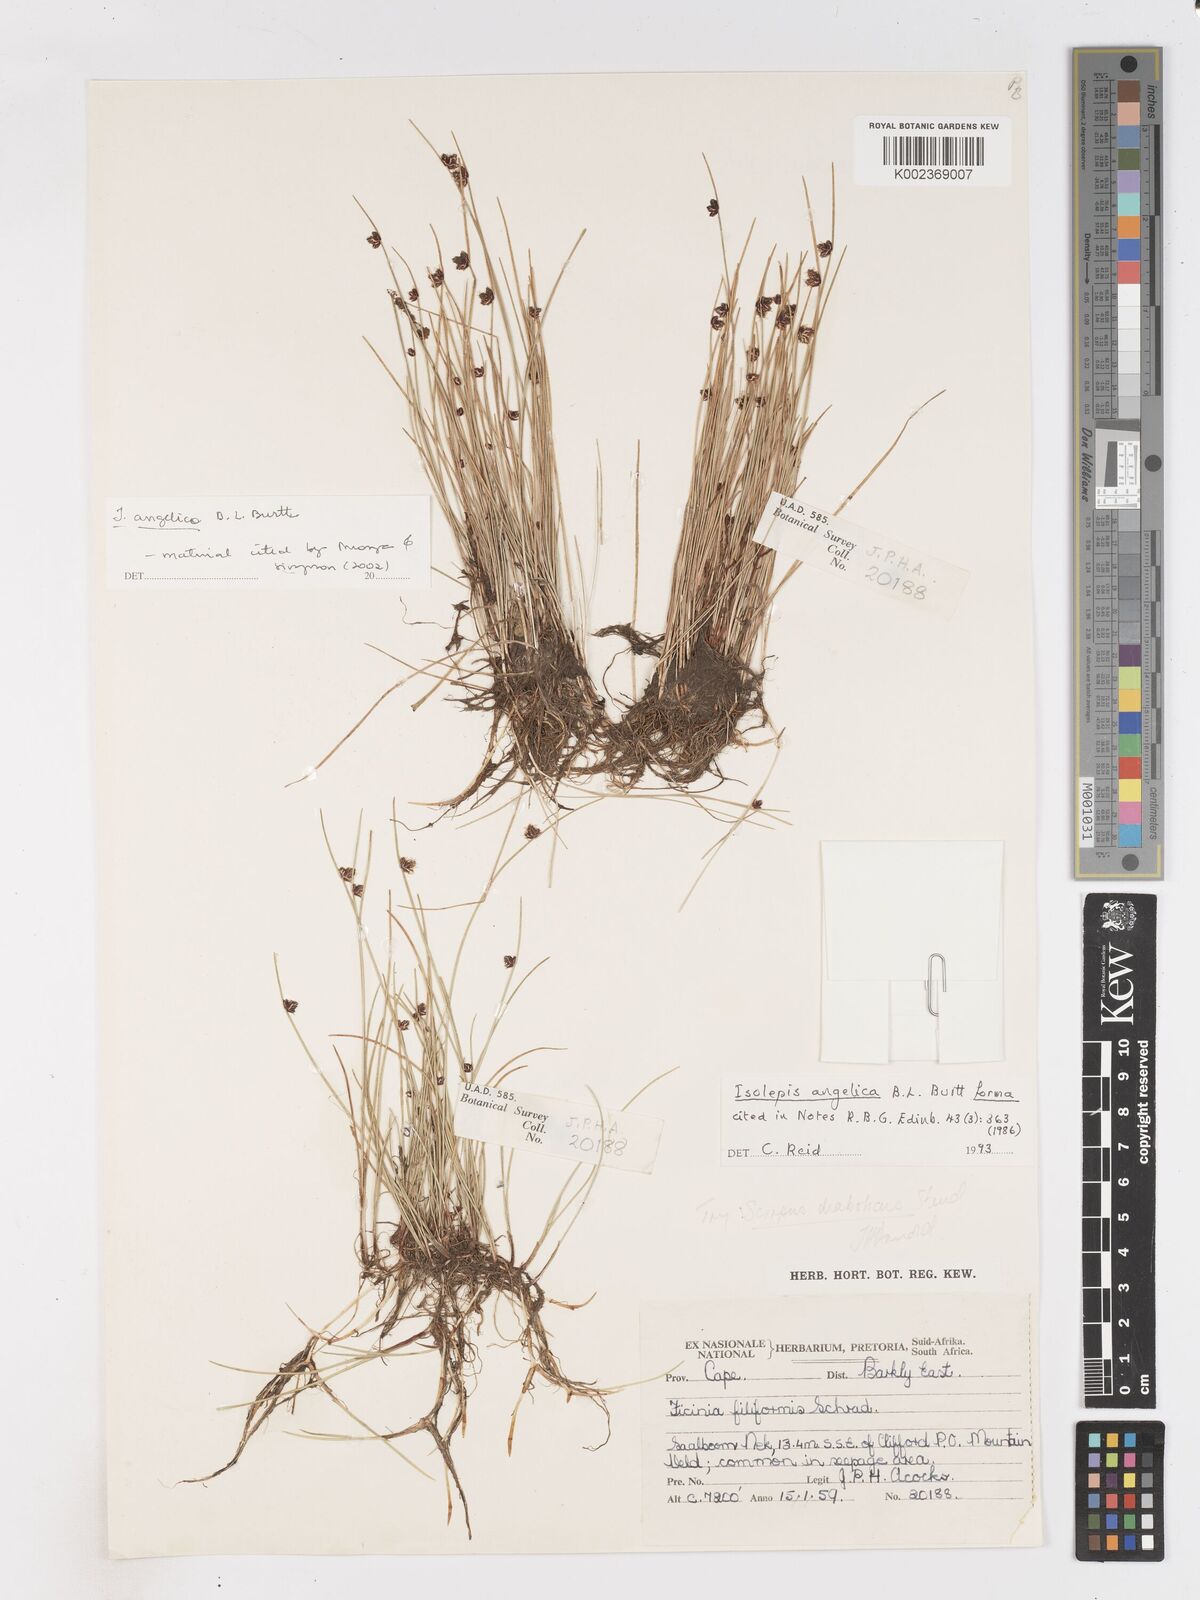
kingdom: Plantae
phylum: Tracheophyta
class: Liliopsida
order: Poales
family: Cyperaceae
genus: Isolepis
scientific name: Isolepis angelica
